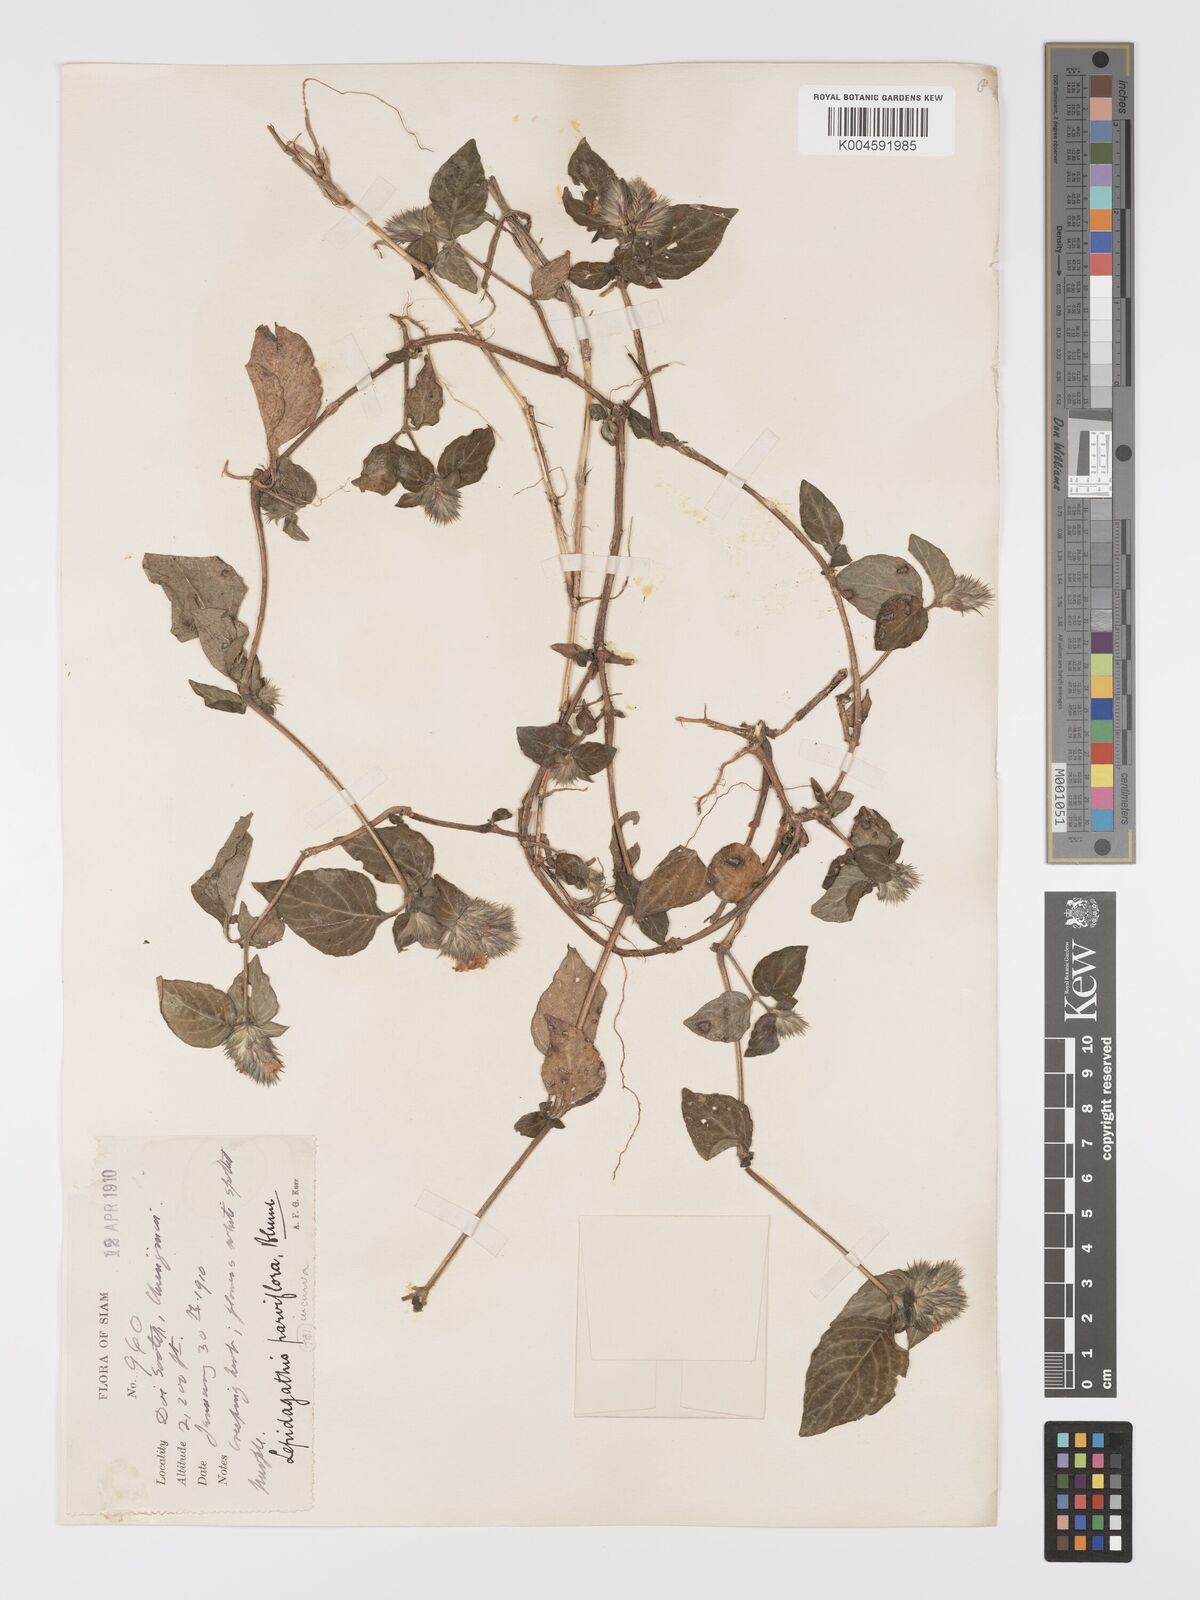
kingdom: Plantae
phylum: Tracheophyta
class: Magnoliopsida
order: Lamiales
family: Acanthaceae
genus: Lepidagathis
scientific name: Lepidagathis incurva
